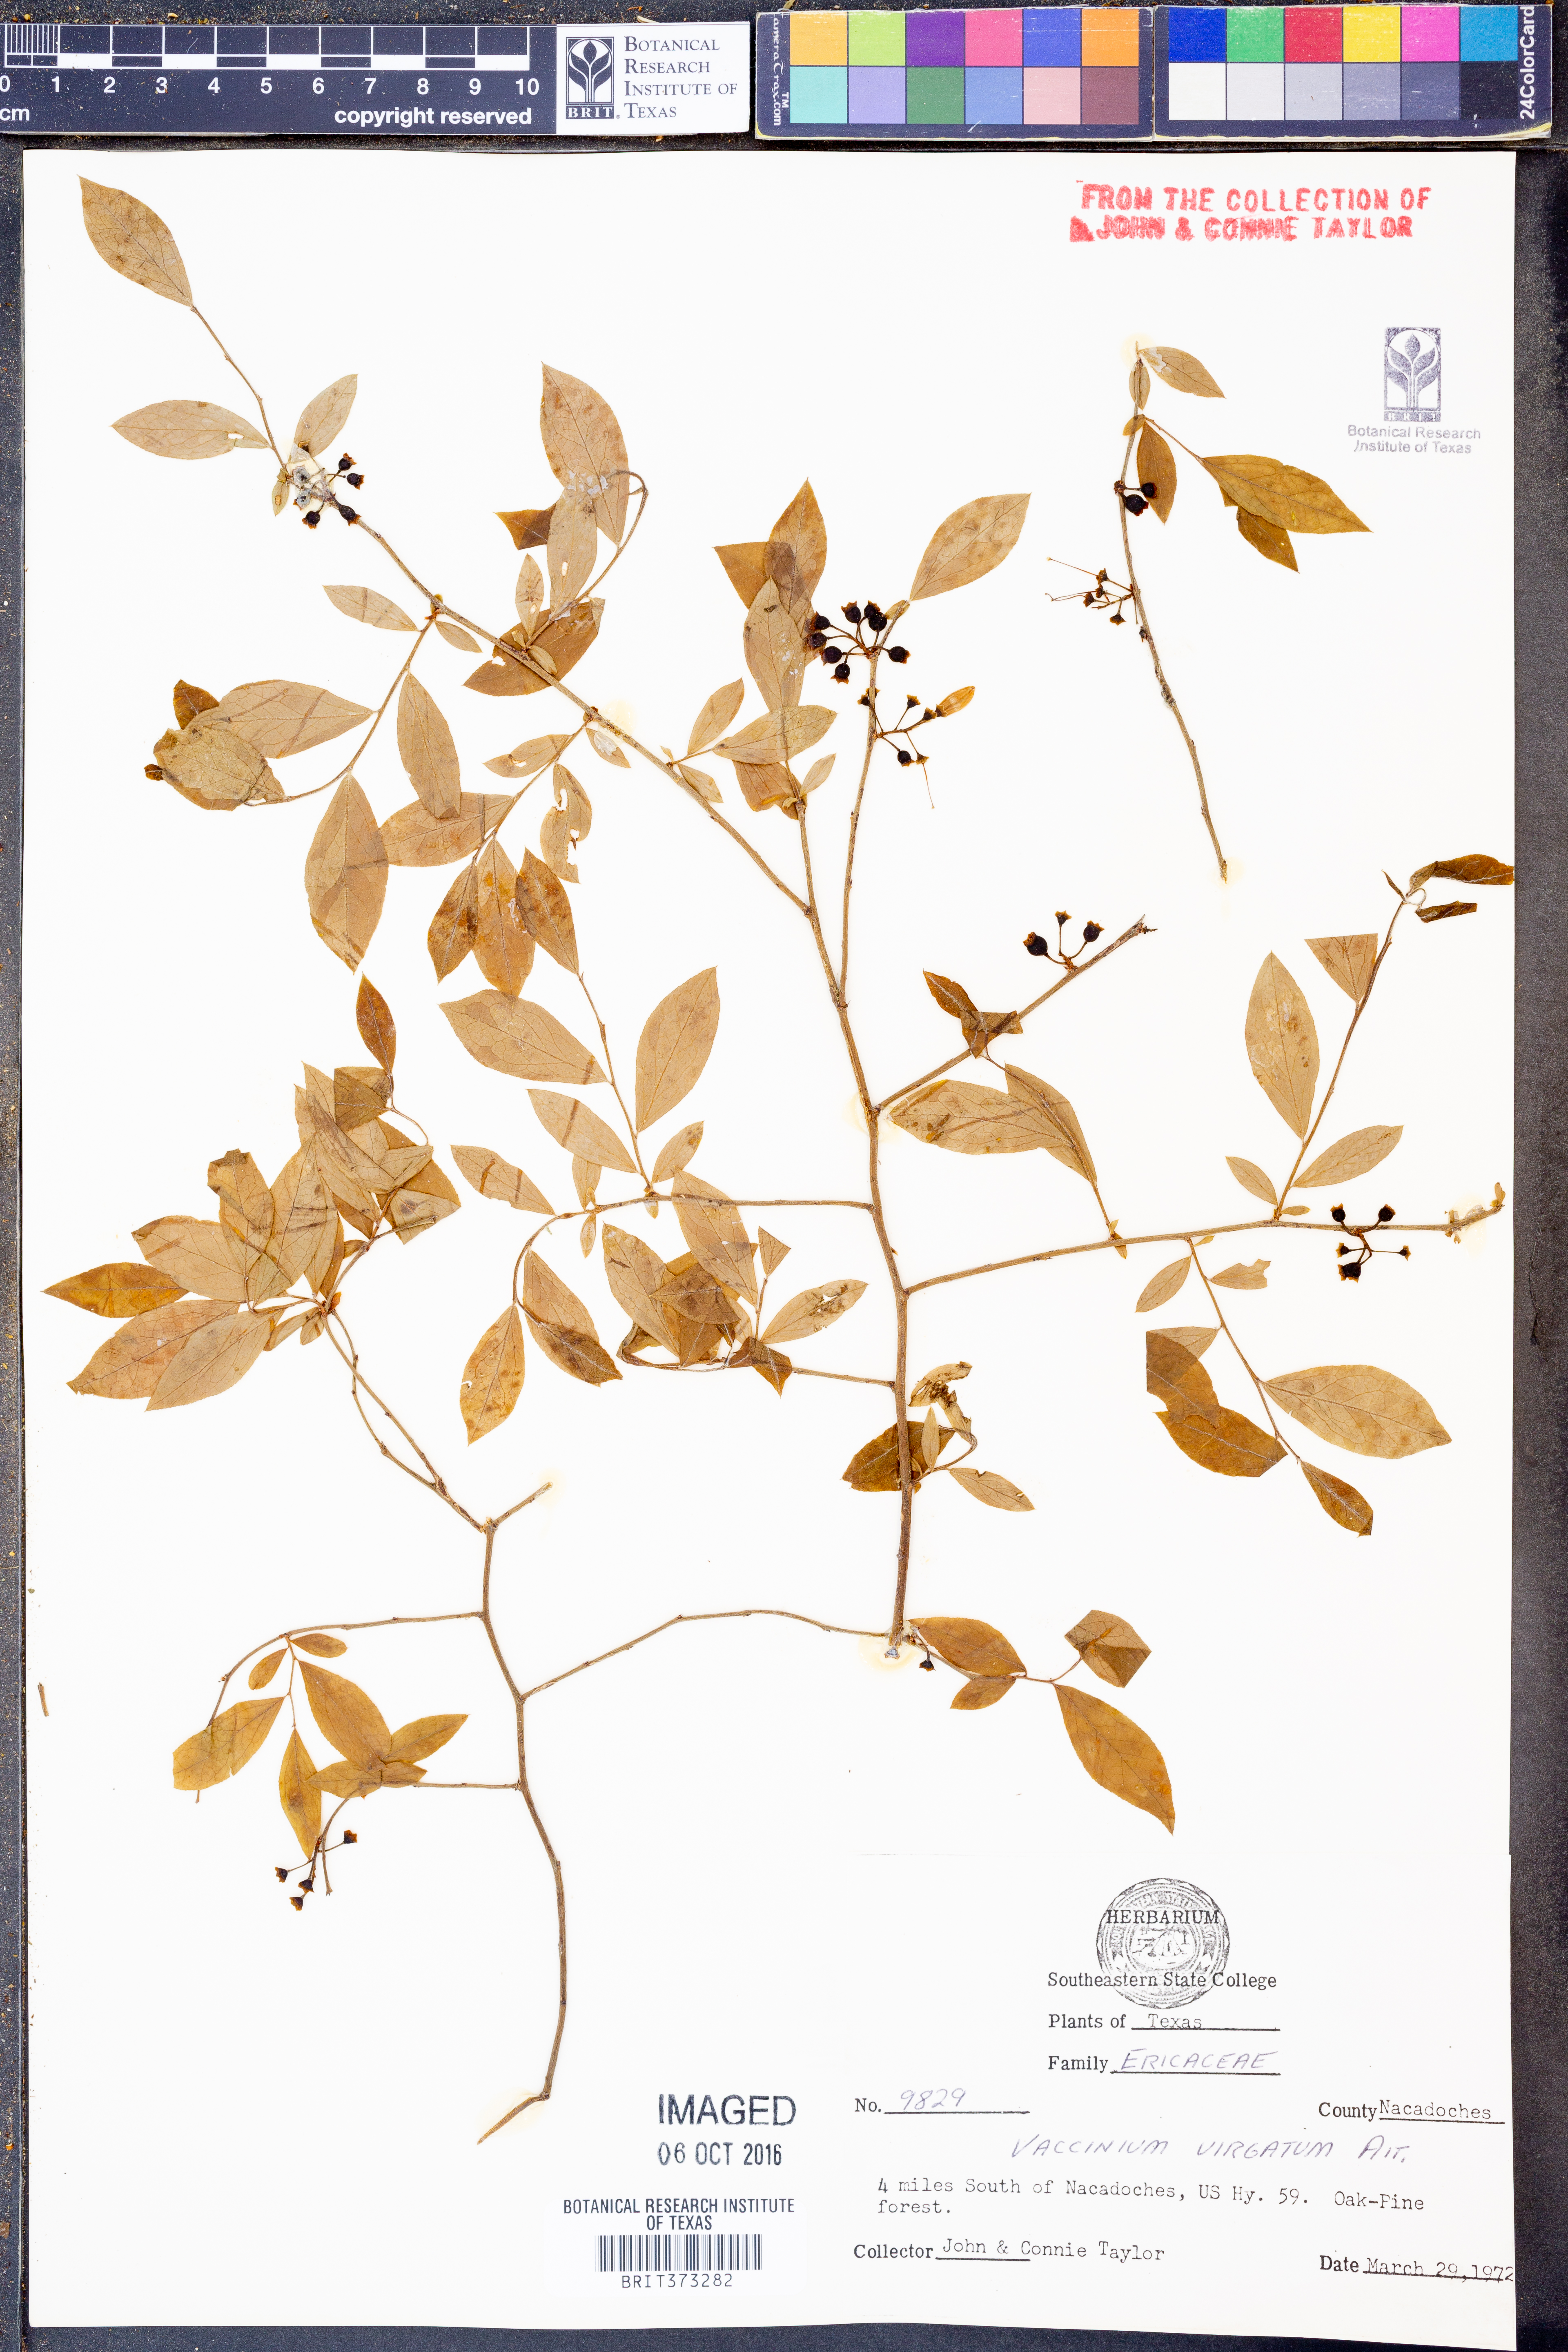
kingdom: Plantae
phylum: Tracheophyta
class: Magnoliopsida
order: Ericales
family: Ericaceae
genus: Vaccinium
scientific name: Vaccinium corymbosum
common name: Blueberry
